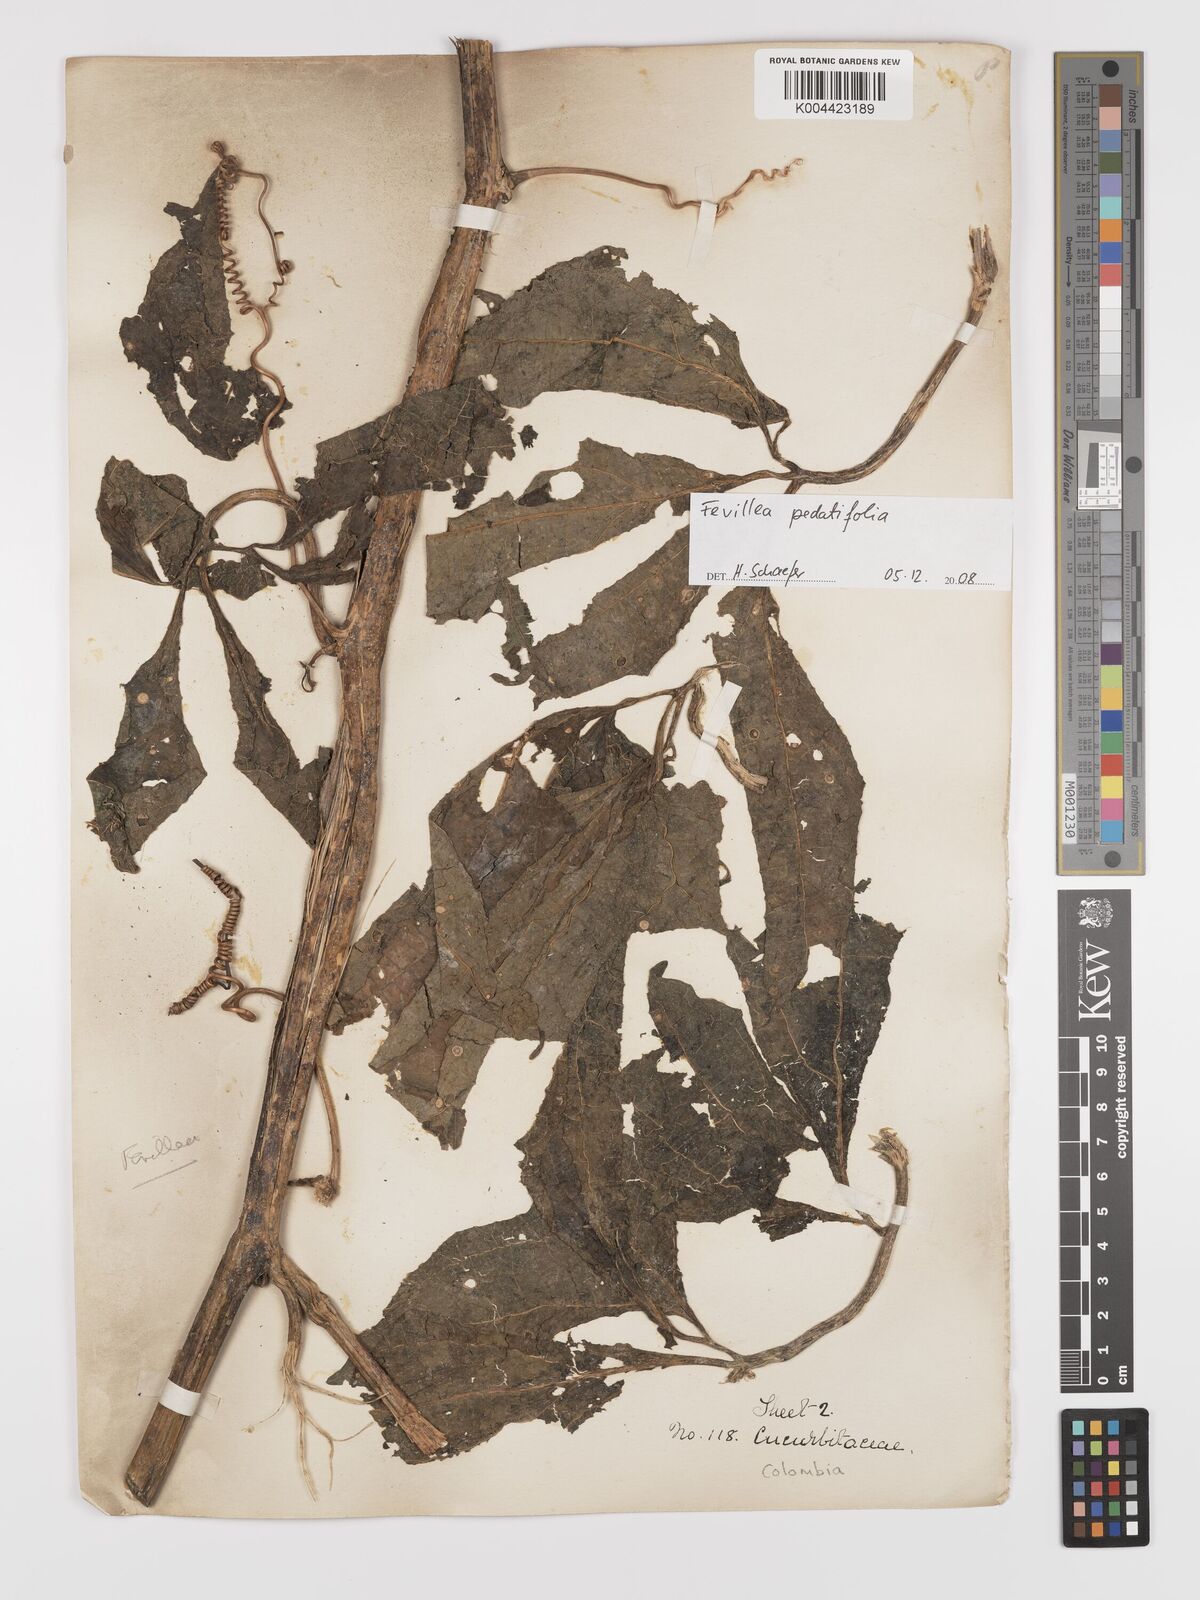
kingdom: Plantae
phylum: Tracheophyta
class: Magnoliopsida
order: Cucurbitales
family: Cucurbitaceae
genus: Fevillea
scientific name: Fevillea pedatifolia
